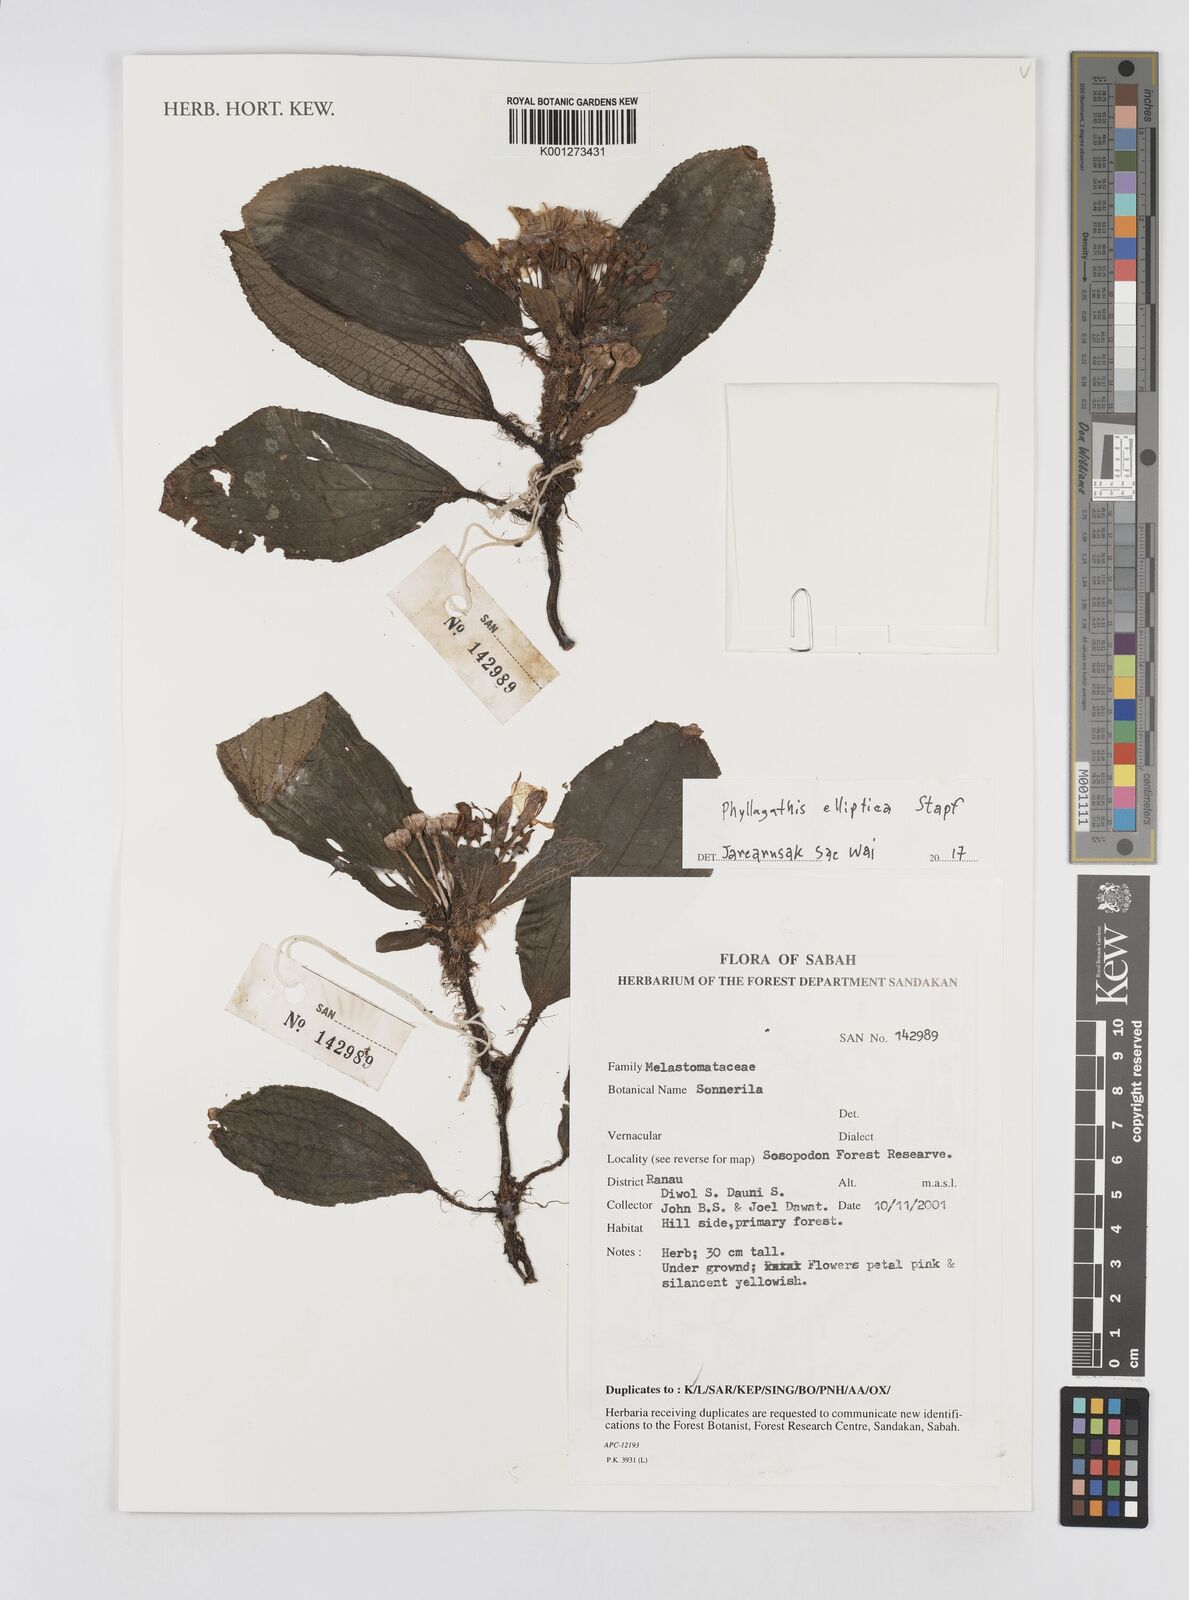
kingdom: Plantae
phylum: Tracheophyta
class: Magnoliopsida
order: Myrtales
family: Melastomataceae
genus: Phyllagathis
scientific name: Phyllagathis elliptica
